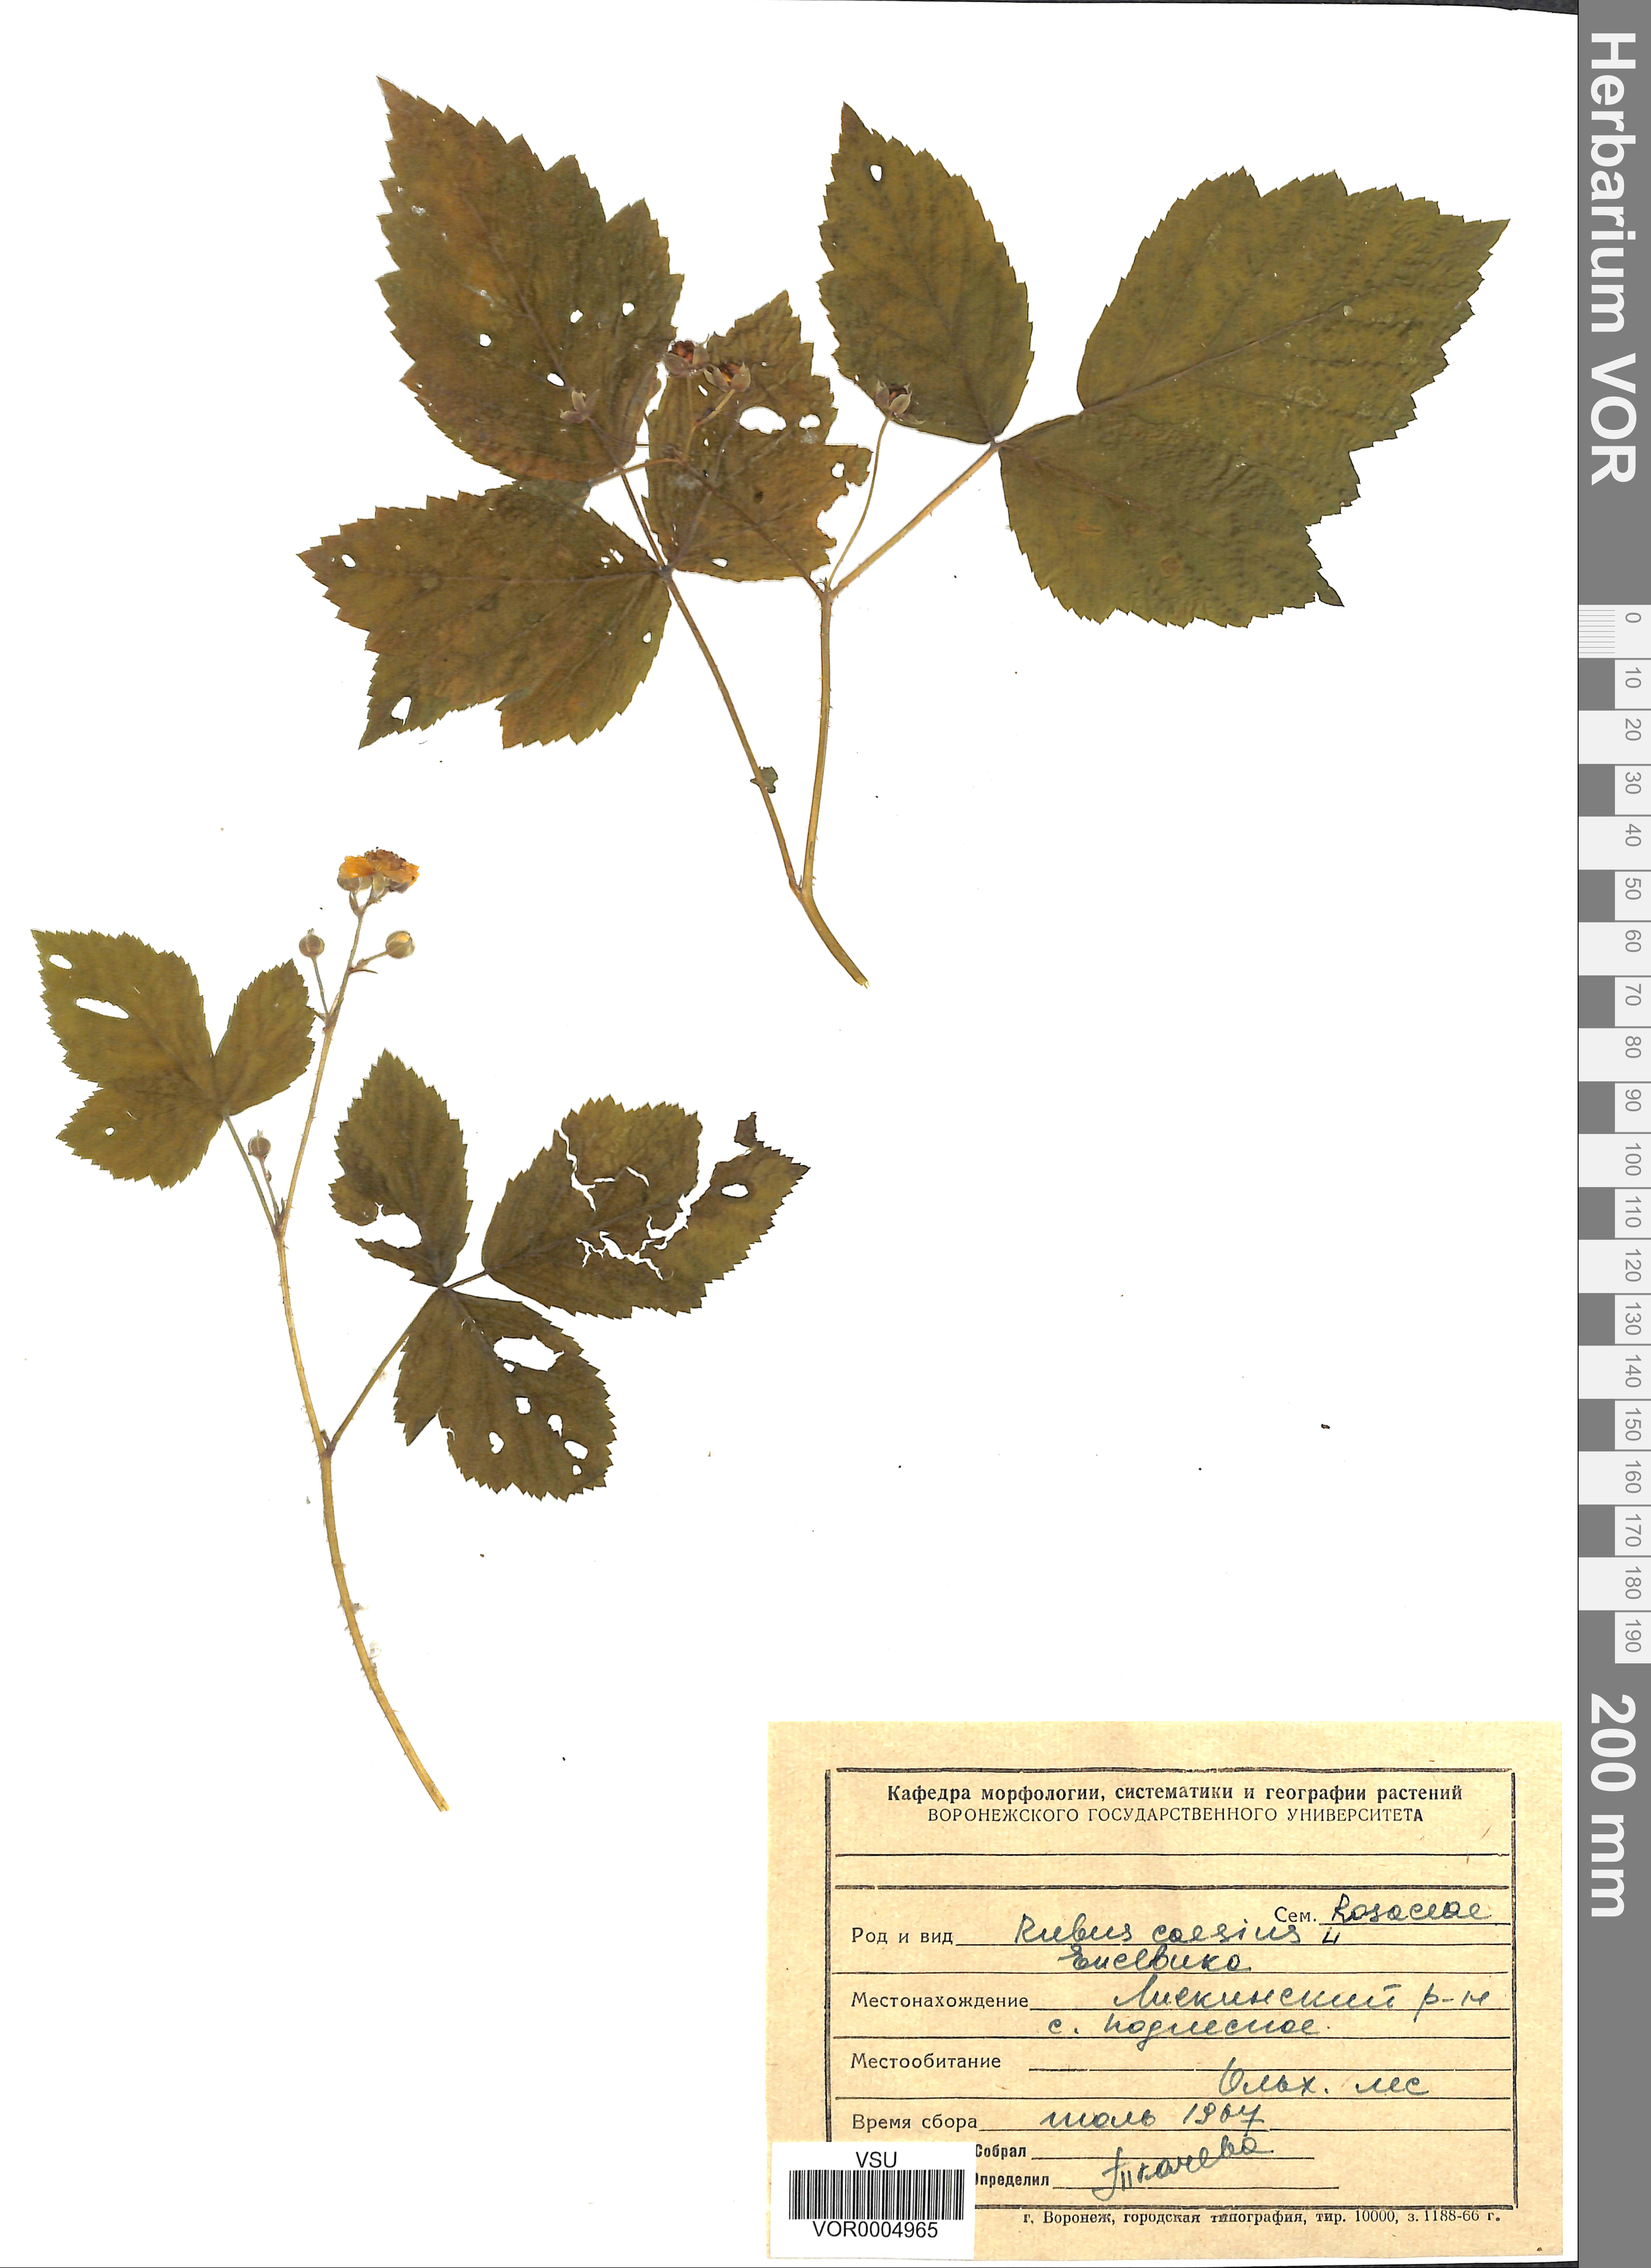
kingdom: Plantae
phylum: Tracheophyta
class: Magnoliopsida
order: Rosales
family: Rosaceae
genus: Rubus
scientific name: Rubus caesius
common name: Dewberry
